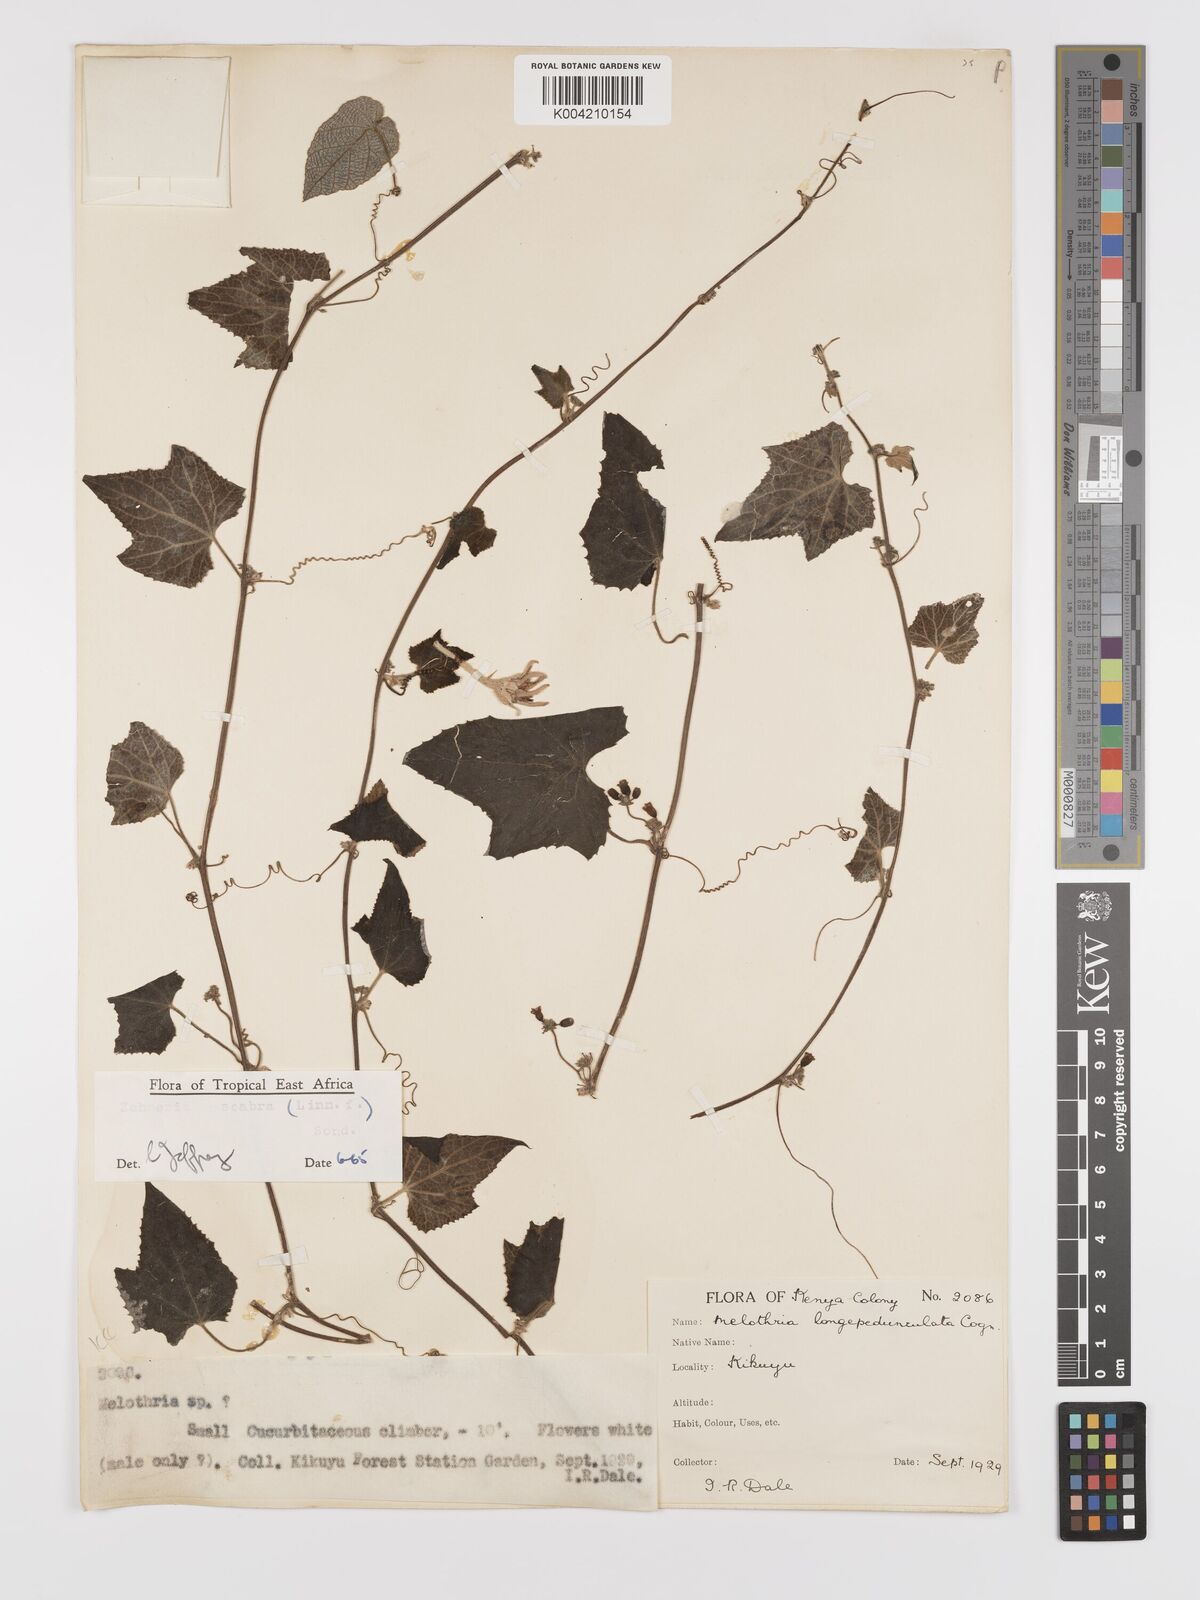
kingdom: Plantae
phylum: Tracheophyta
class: Magnoliopsida
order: Cucurbitales
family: Cucurbitaceae
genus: Zehneria
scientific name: Zehneria scabra
